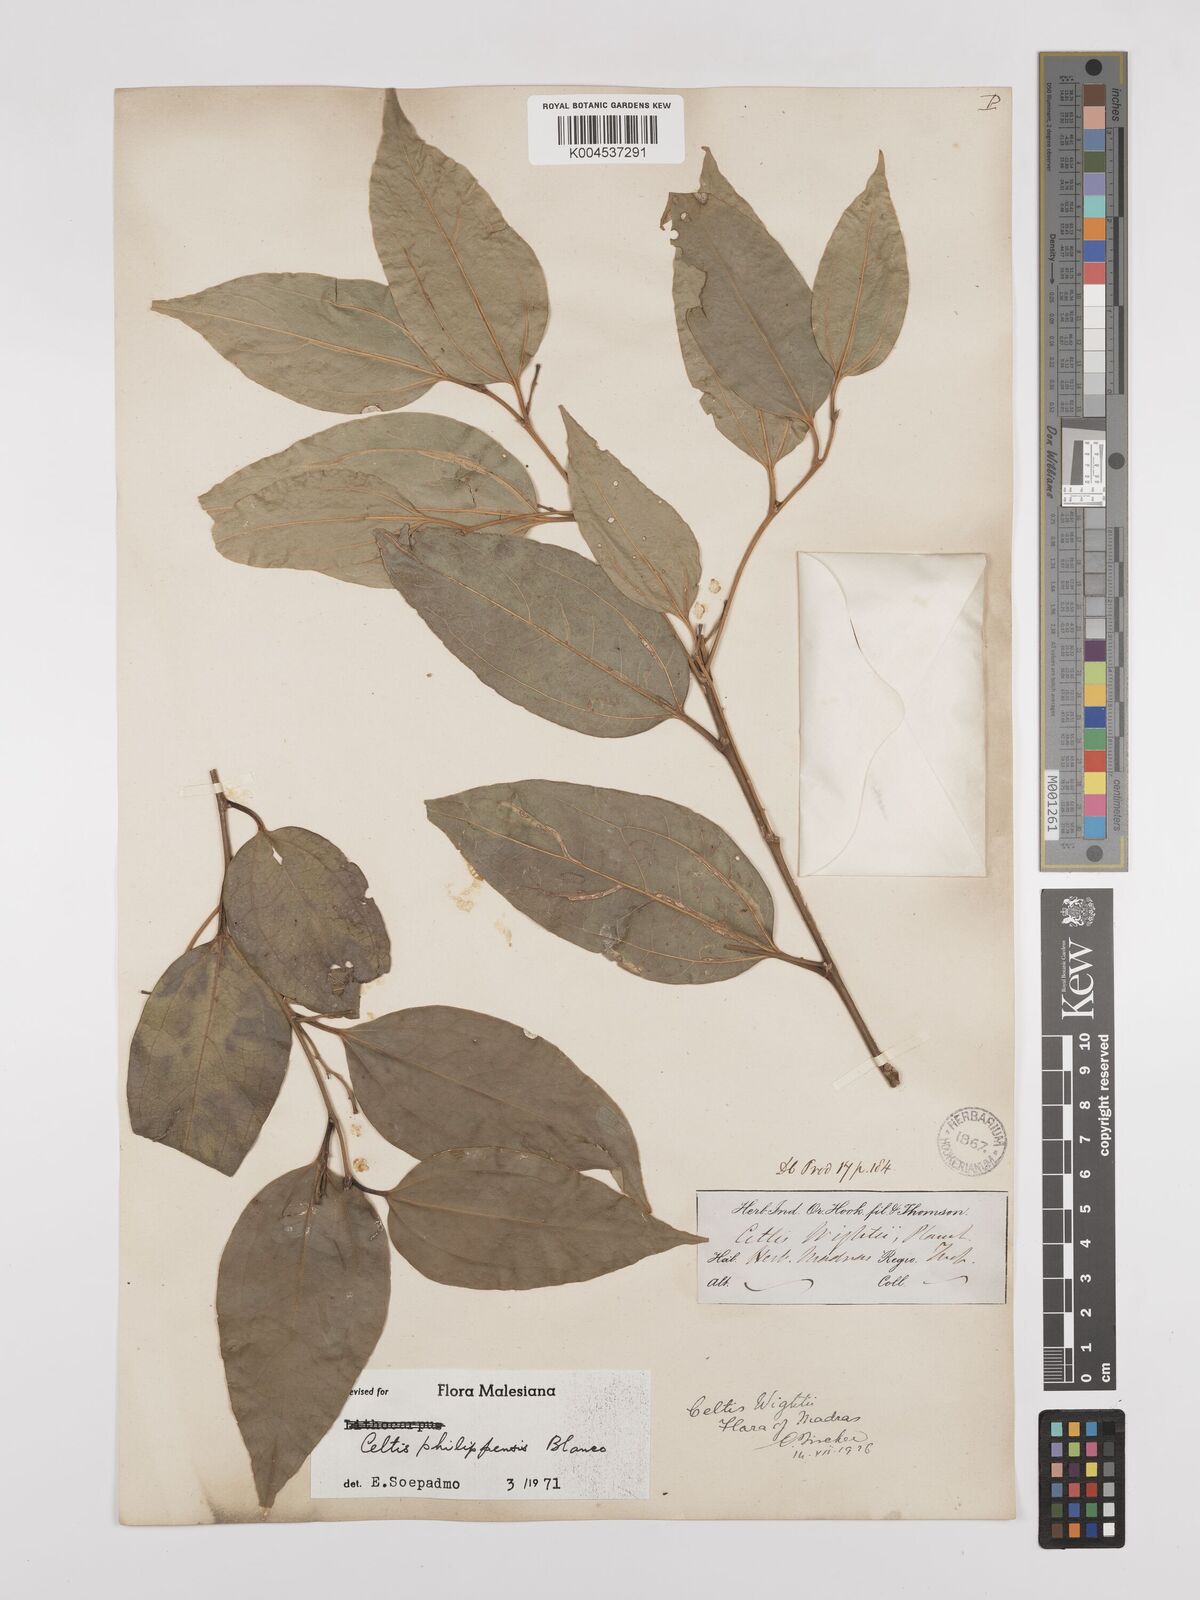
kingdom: Plantae
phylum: Tracheophyta
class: Magnoliopsida
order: Rosales
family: Cannabaceae
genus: Celtis
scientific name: Celtis philippensis
